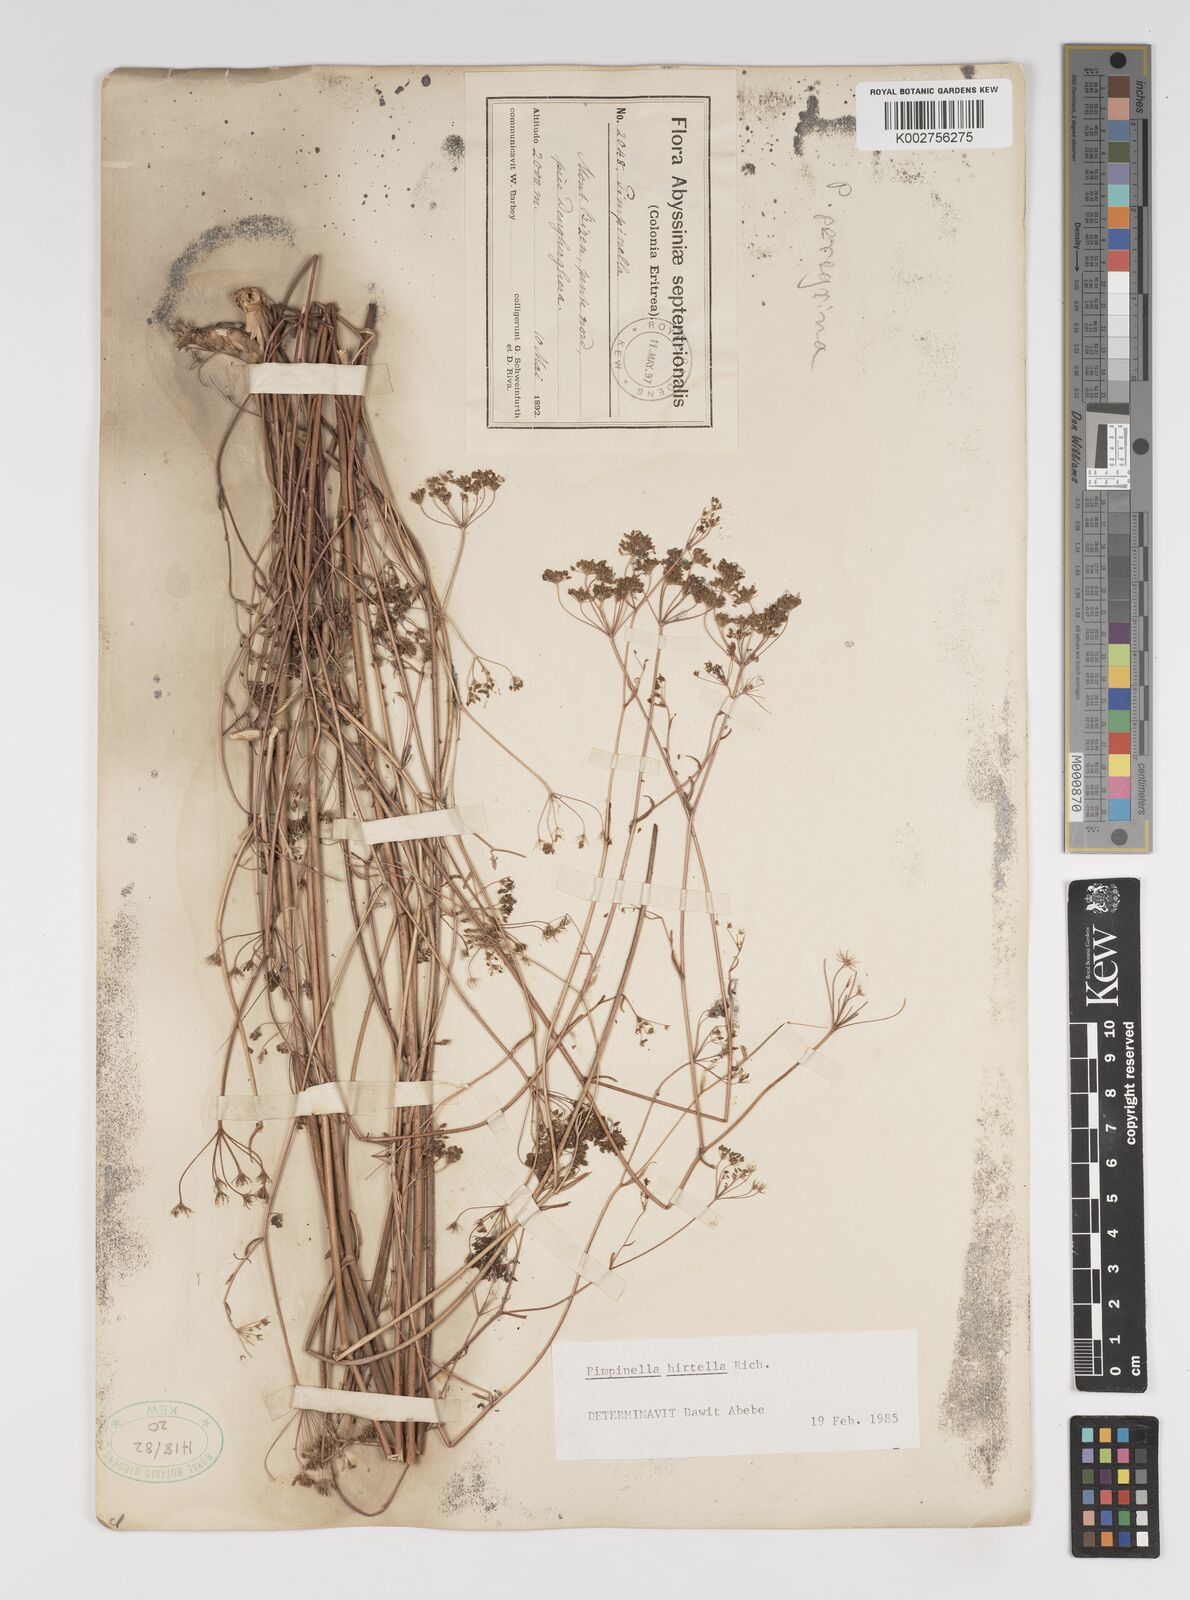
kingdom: Plantae
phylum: Tracheophyta
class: Magnoliopsida
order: Apiales
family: Apiaceae
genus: Pimpinella
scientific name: Pimpinella hirtella
